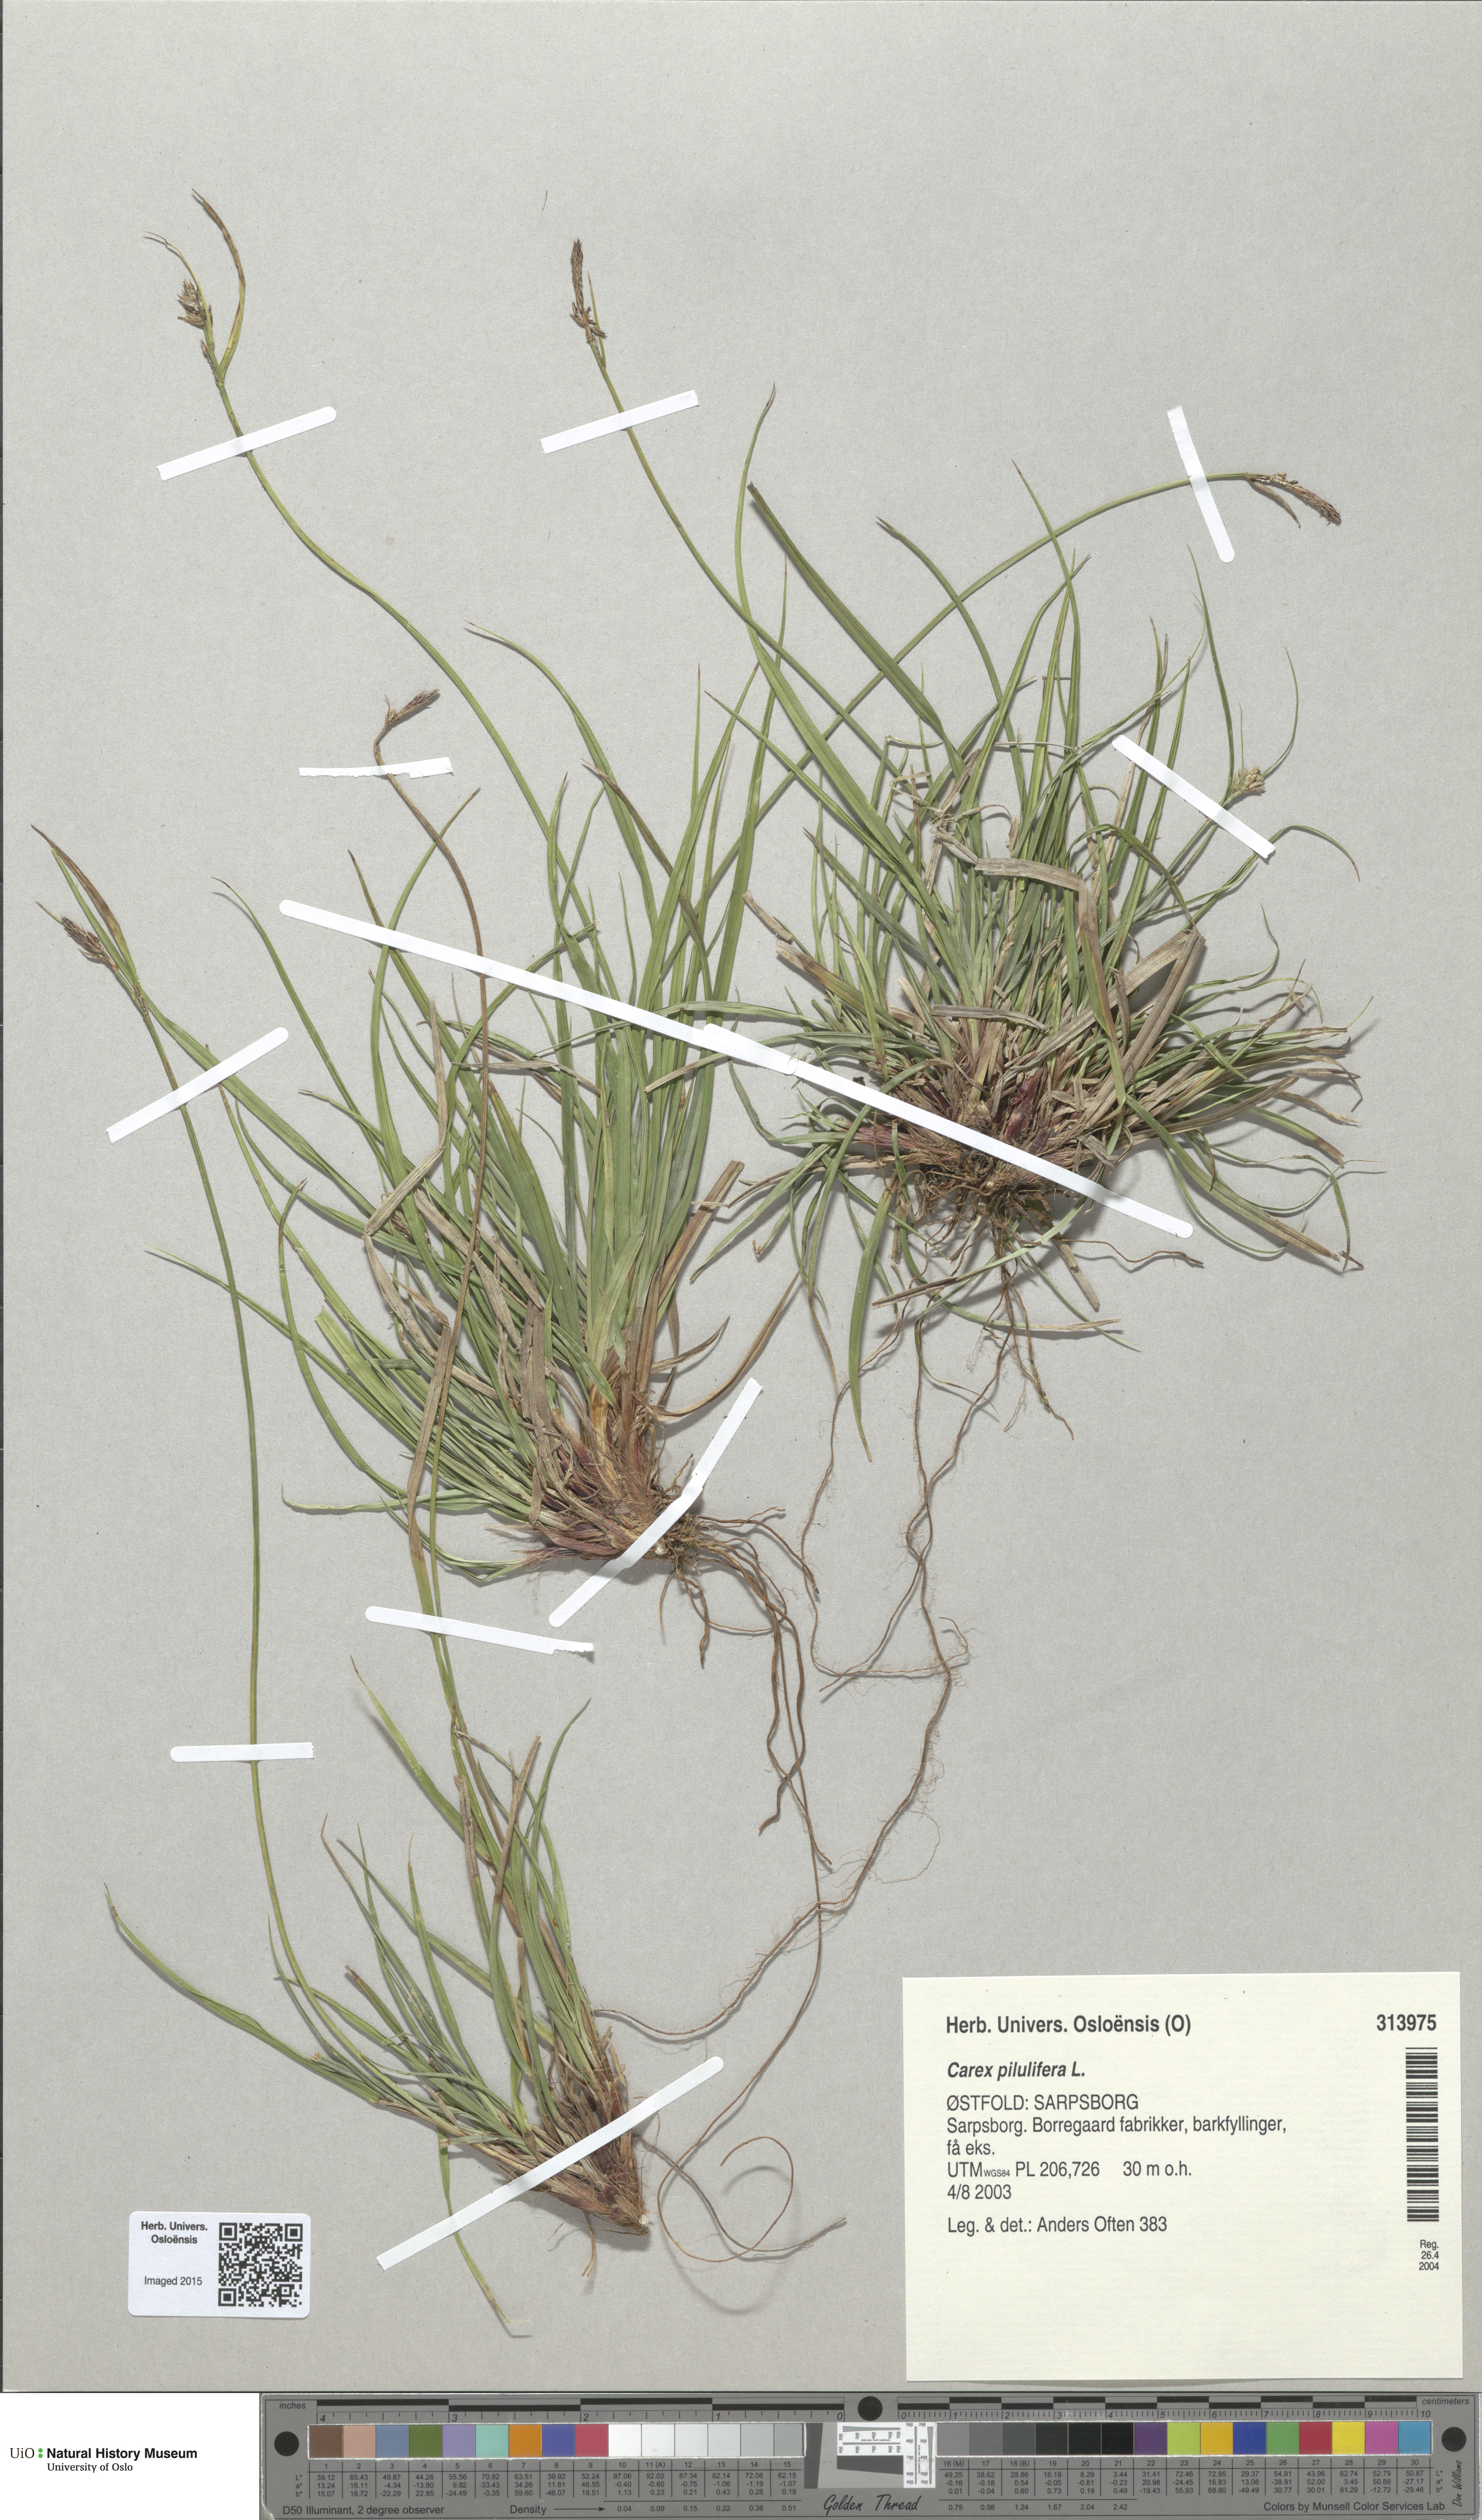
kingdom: Plantae
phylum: Tracheophyta
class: Liliopsida
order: Poales
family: Cyperaceae
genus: Carex
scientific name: Carex pilulifera
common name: Pill sedge
